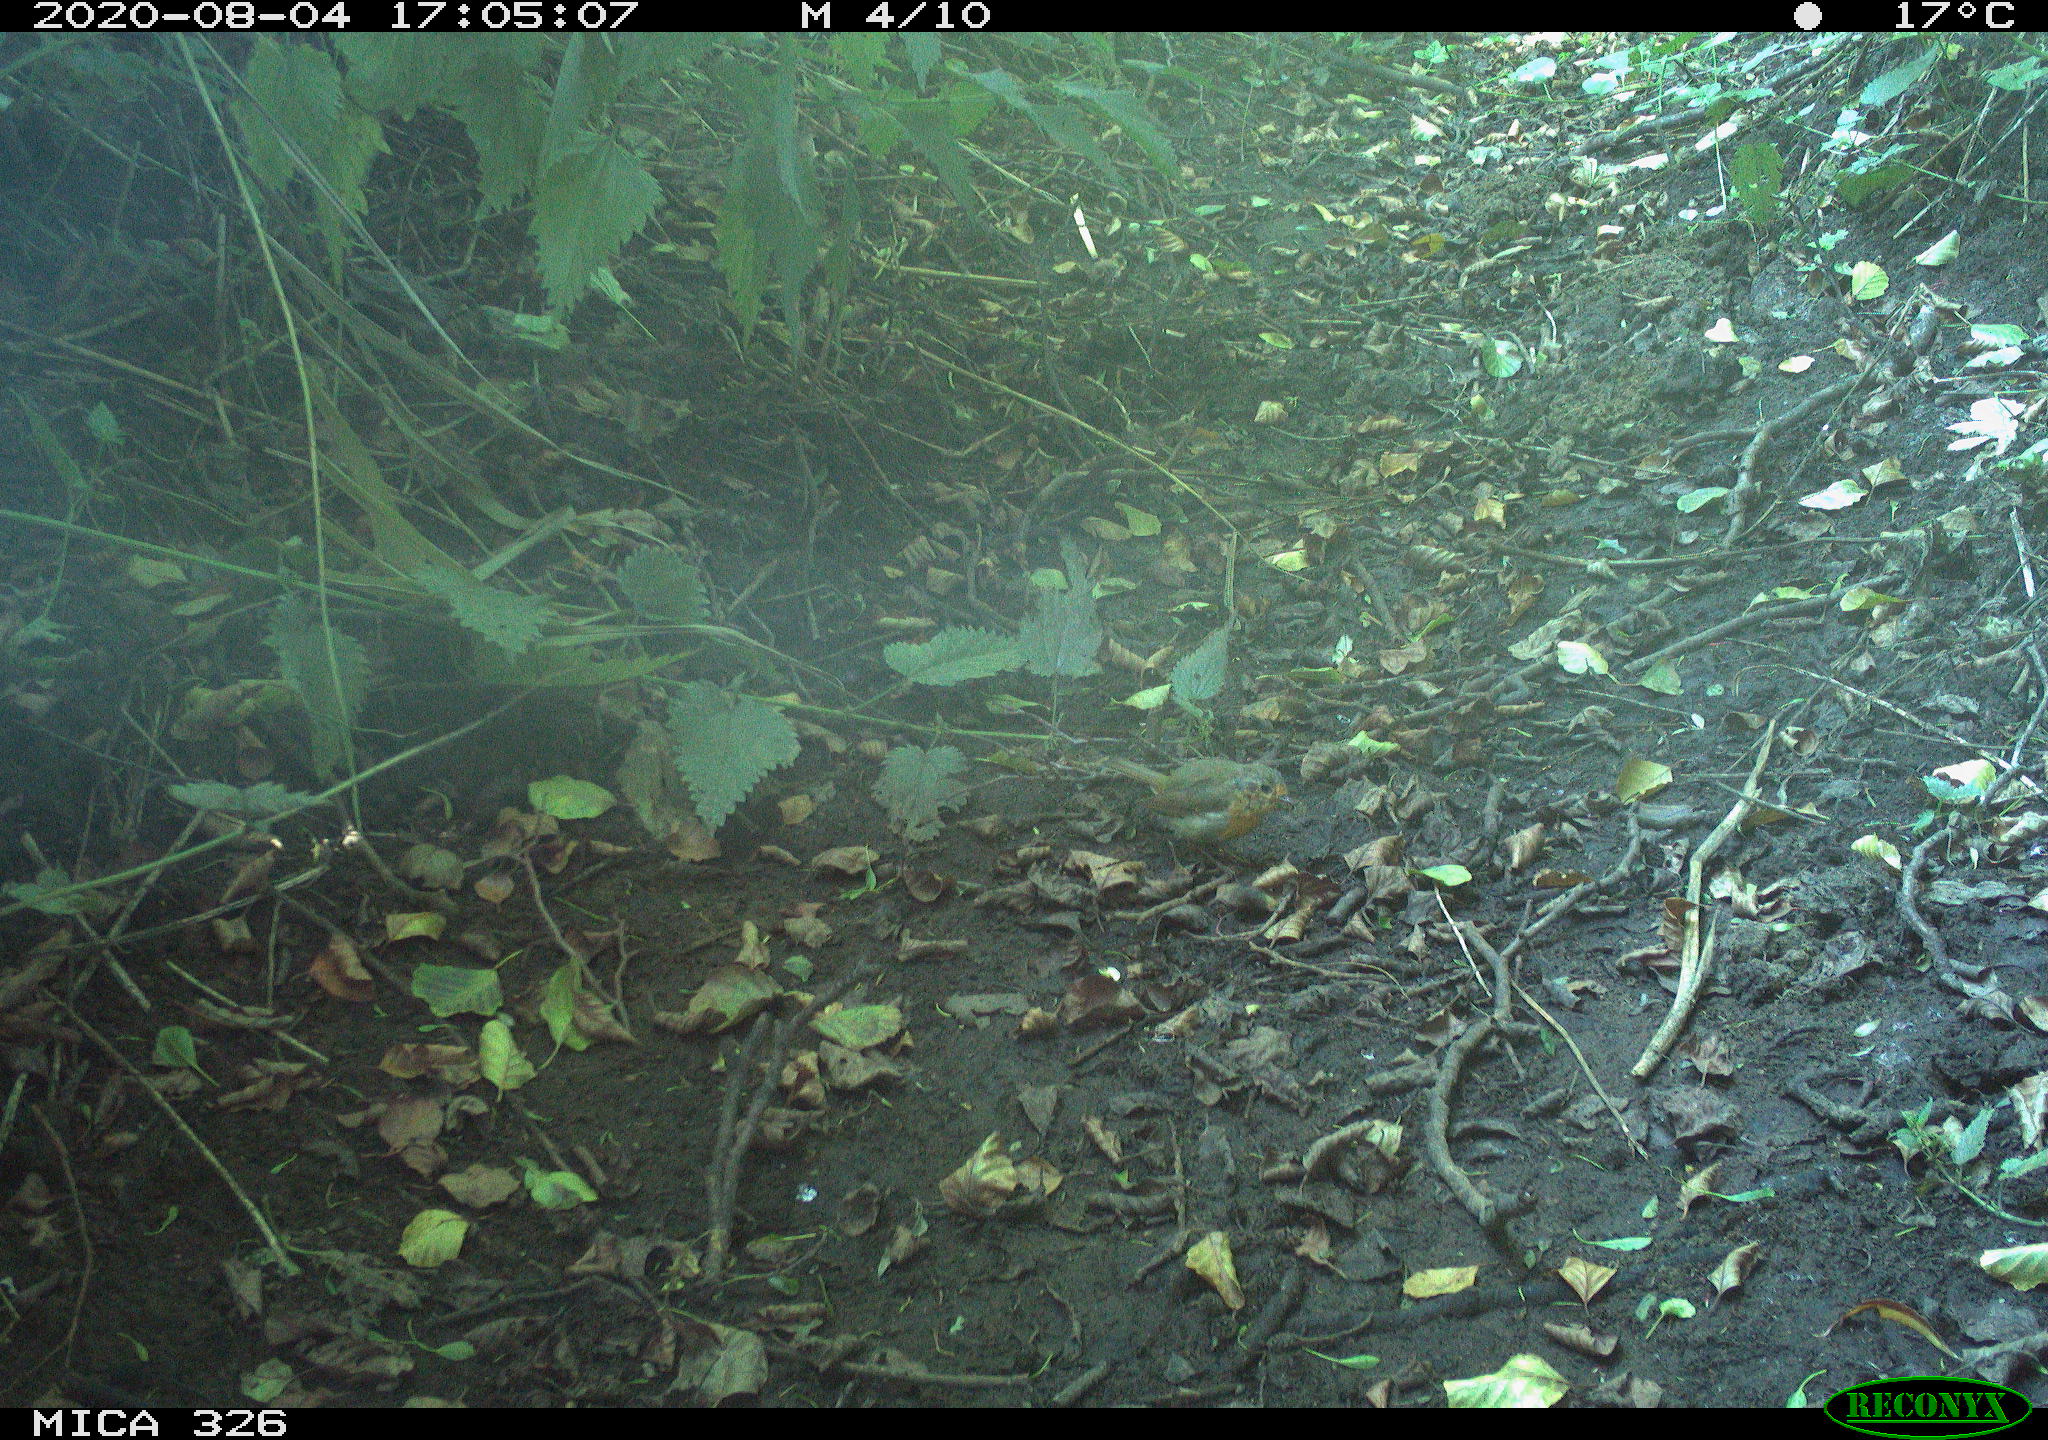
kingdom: Animalia
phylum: Chordata
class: Aves
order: Passeriformes
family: Muscicapidae
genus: Erithacus
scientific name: Erithacus rubecula
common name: European robin
